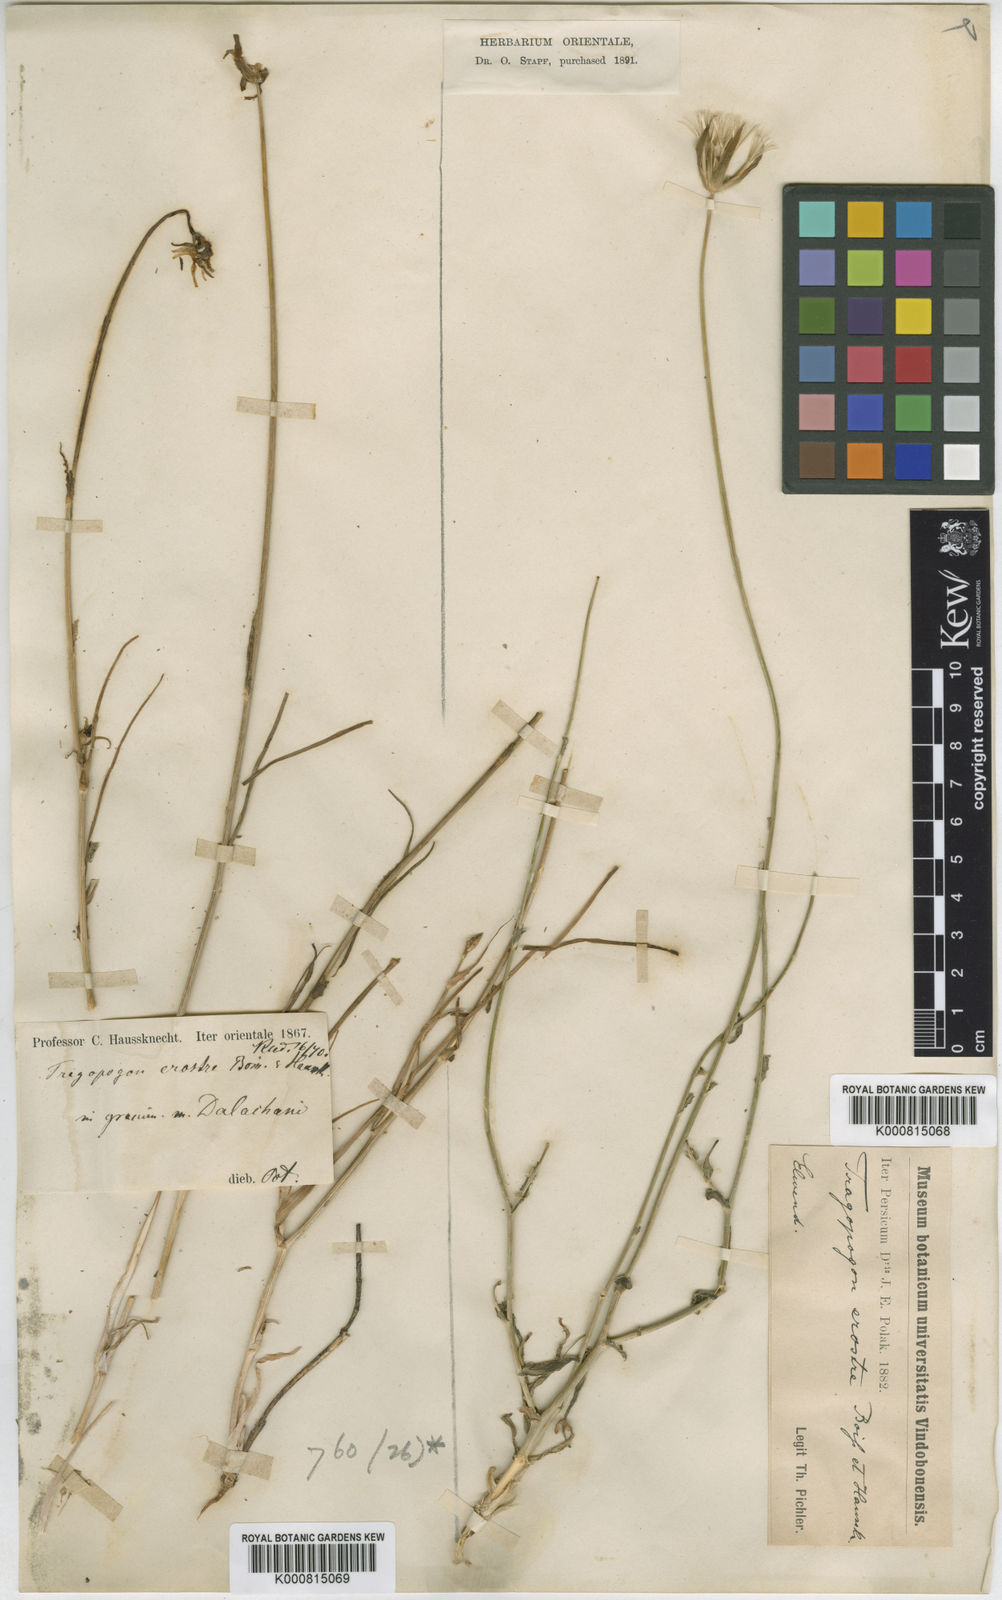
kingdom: Plantae
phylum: Tracheophyta
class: Magnoliopsida
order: Asterales
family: Asteraceae
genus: Tragopogon
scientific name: Tragopogon erostris
